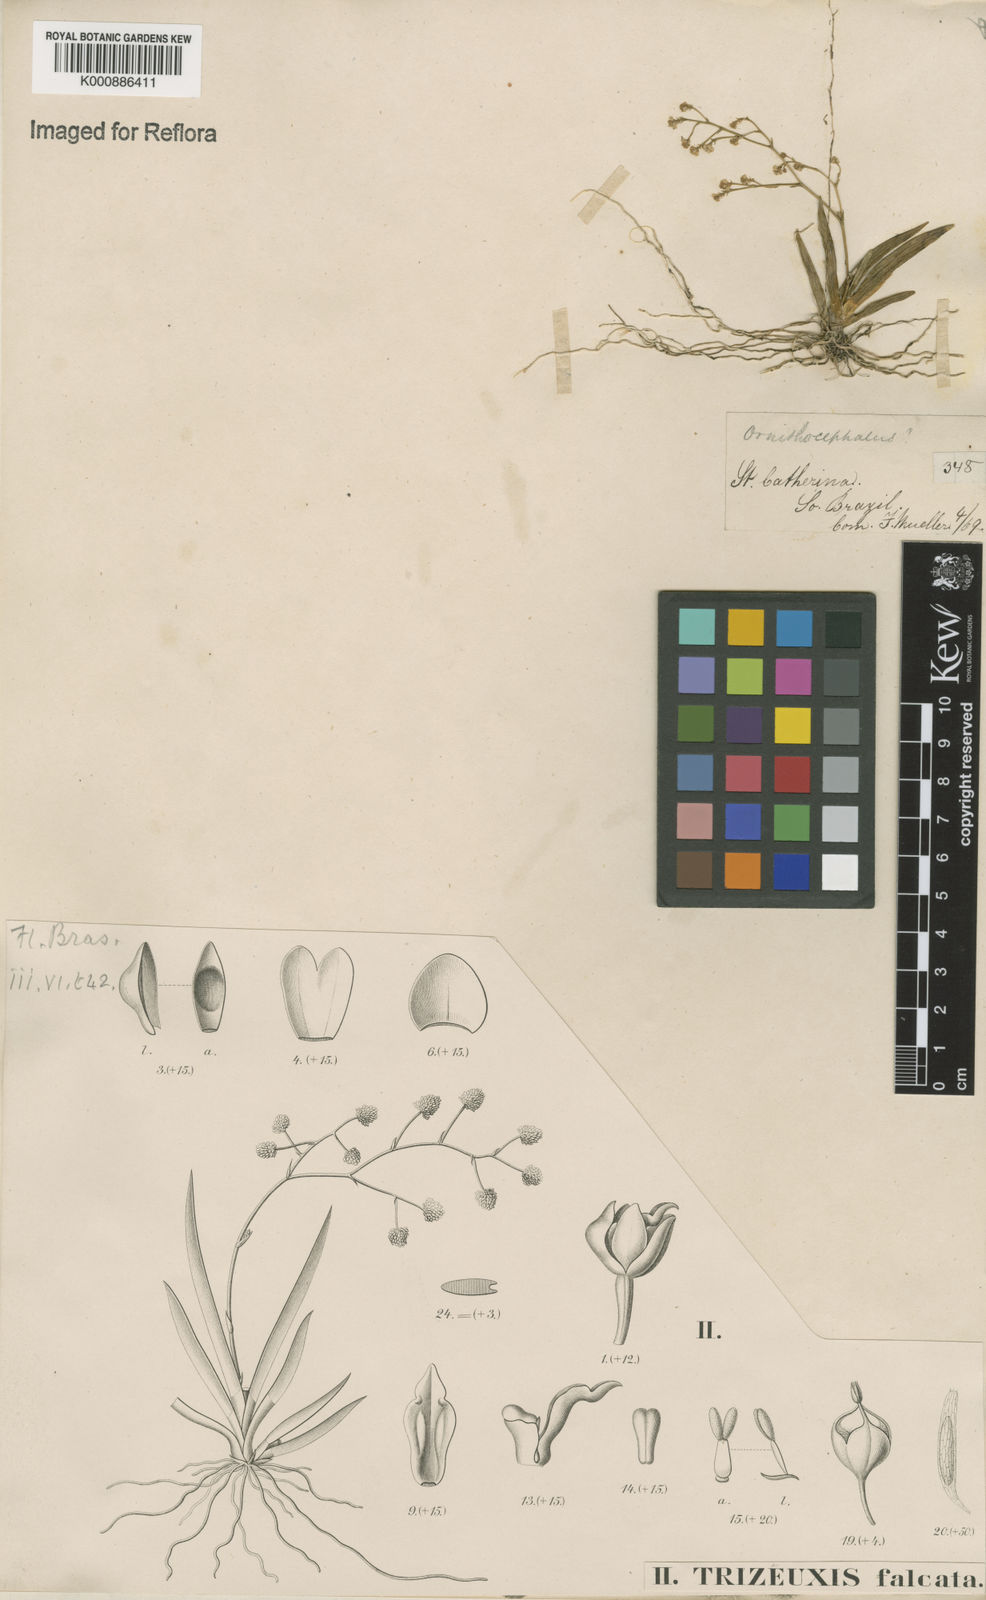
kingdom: Plantae
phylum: Tracheophyta
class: Liliopsida
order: Asparagales
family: Orchidaceae
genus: Trizeuxis
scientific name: Trizeuxis falcata
